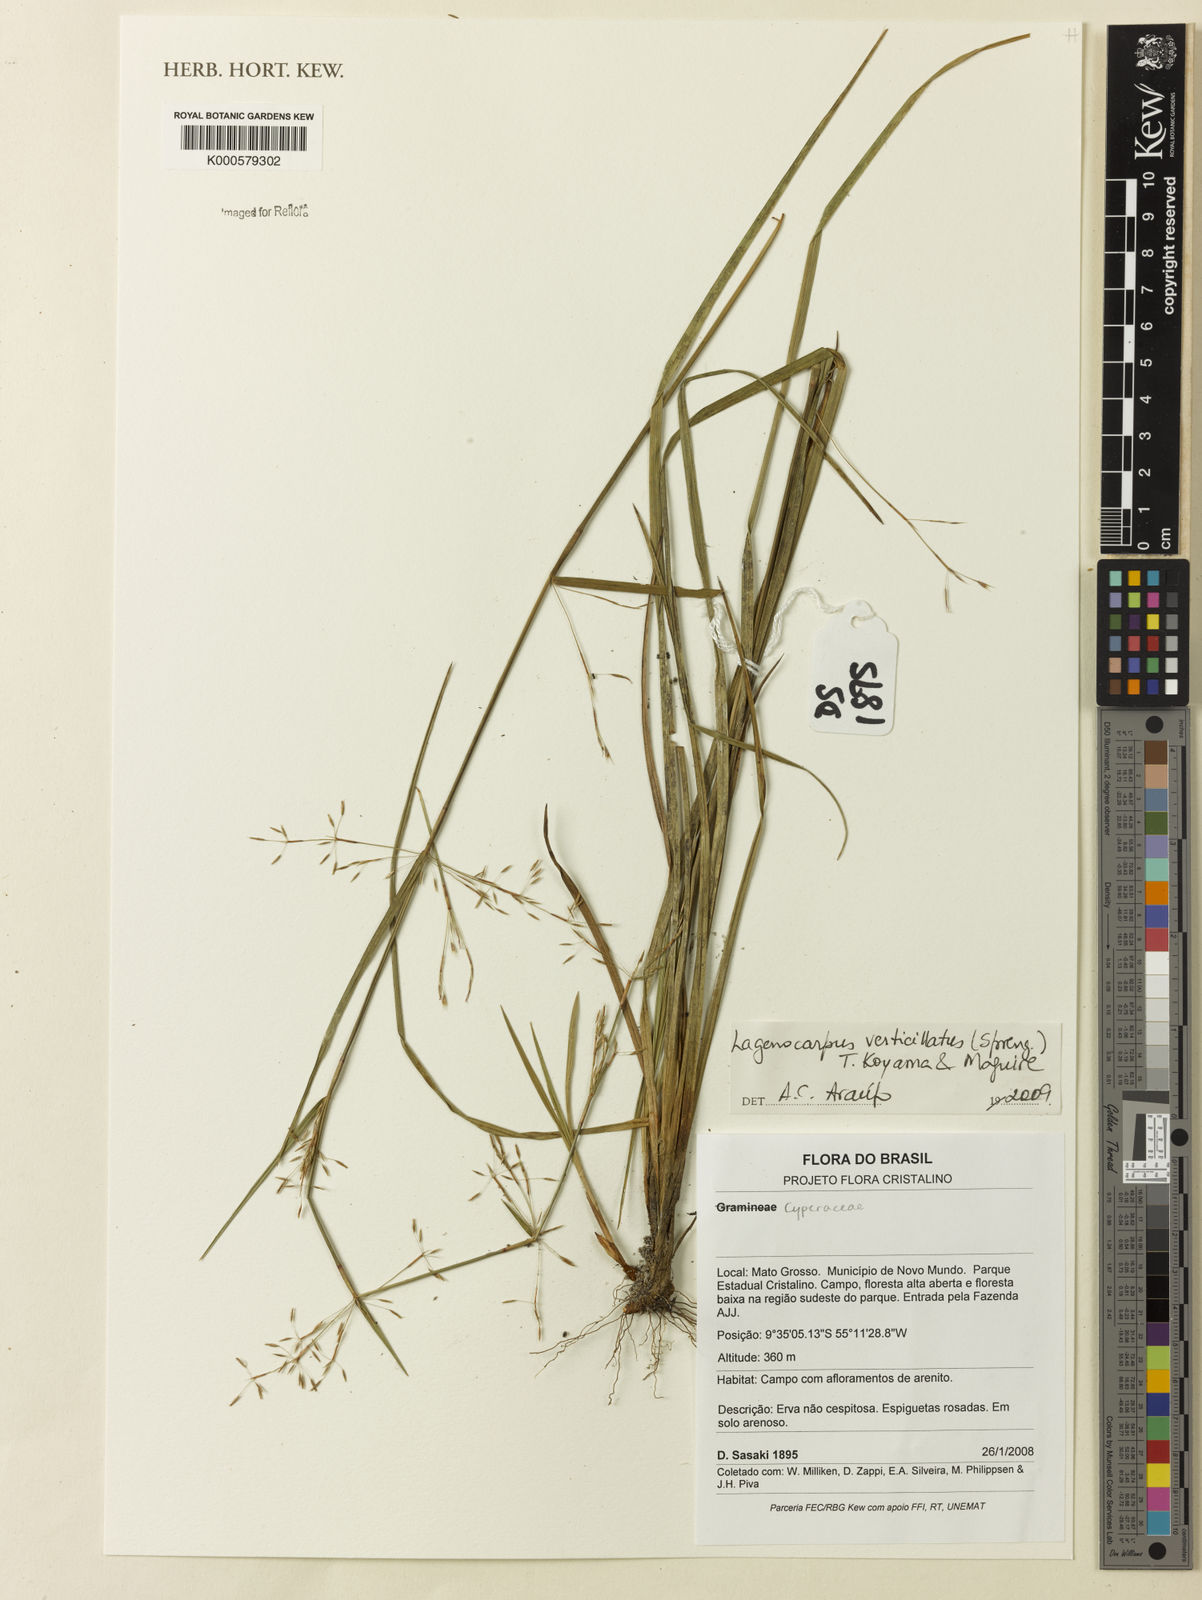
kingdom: Plantae
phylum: Tracheophyta
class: Liliopsida
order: Poales
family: Cyperaceae
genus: Cryptangium
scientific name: Cryptangium verticillatum
